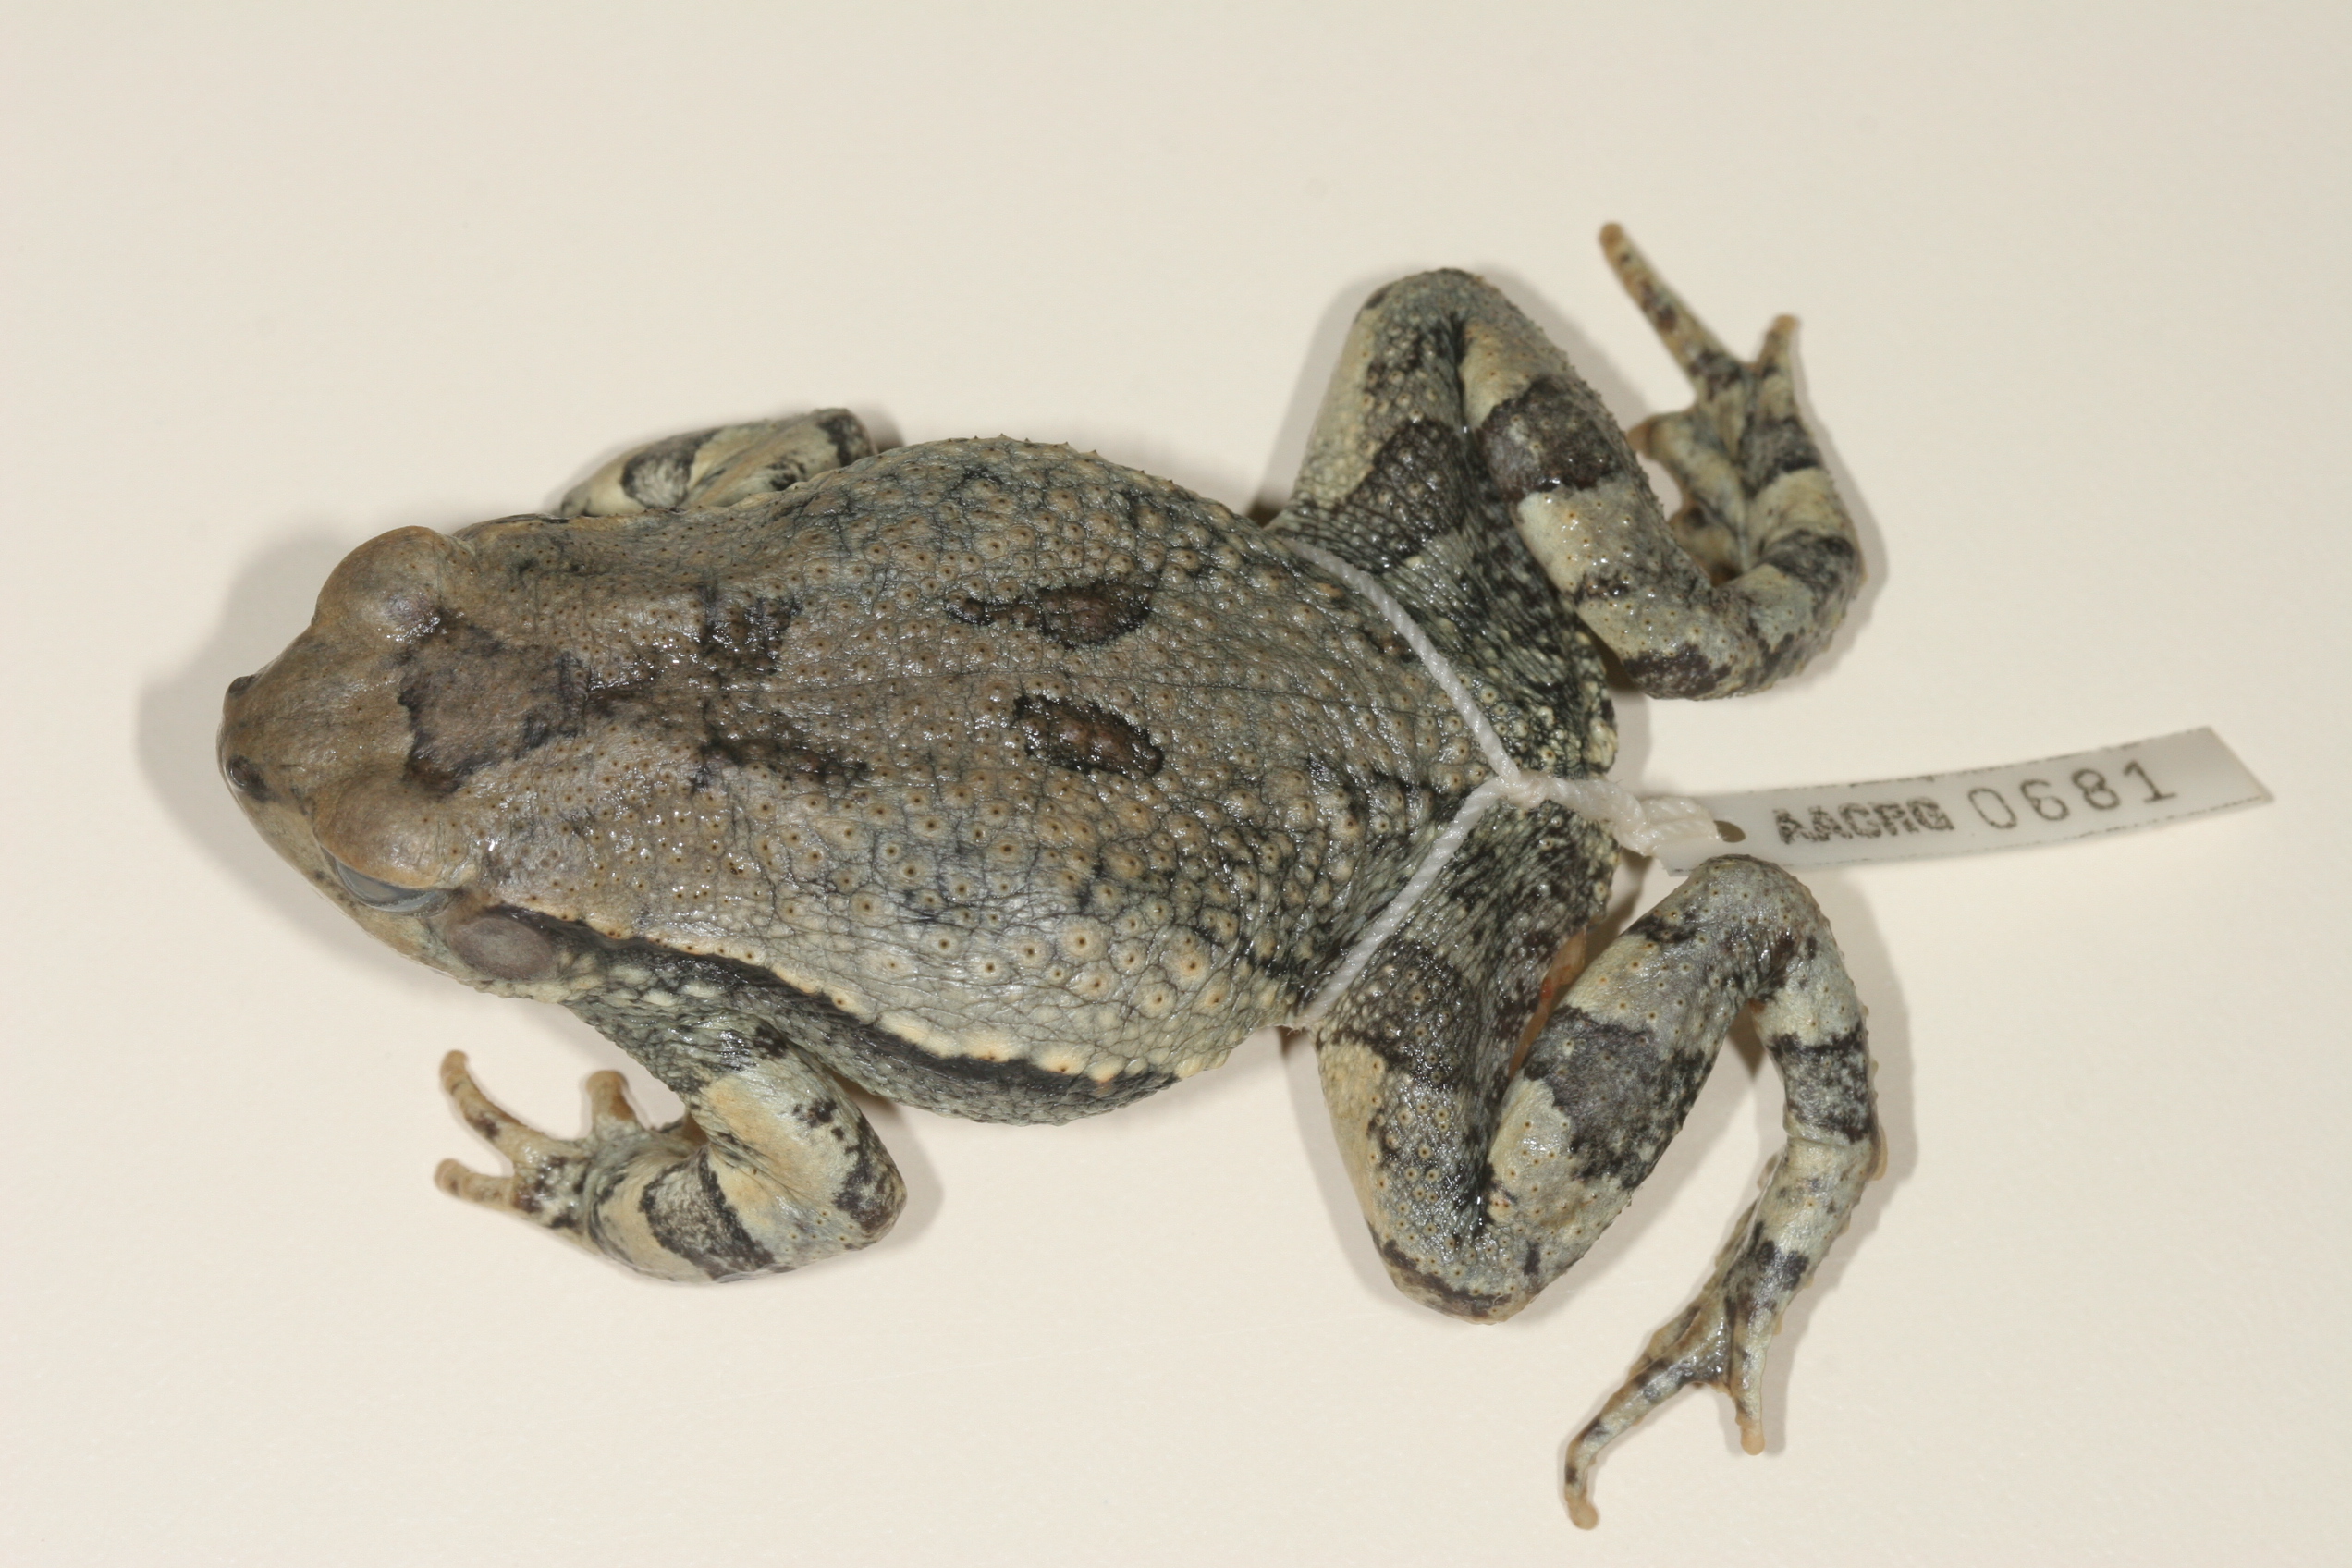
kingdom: Animalia
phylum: Chordata
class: Amphibia
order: Anura
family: Bufonidae
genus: Schismaderma
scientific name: Schismaderma carens
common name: African split-skin toad
